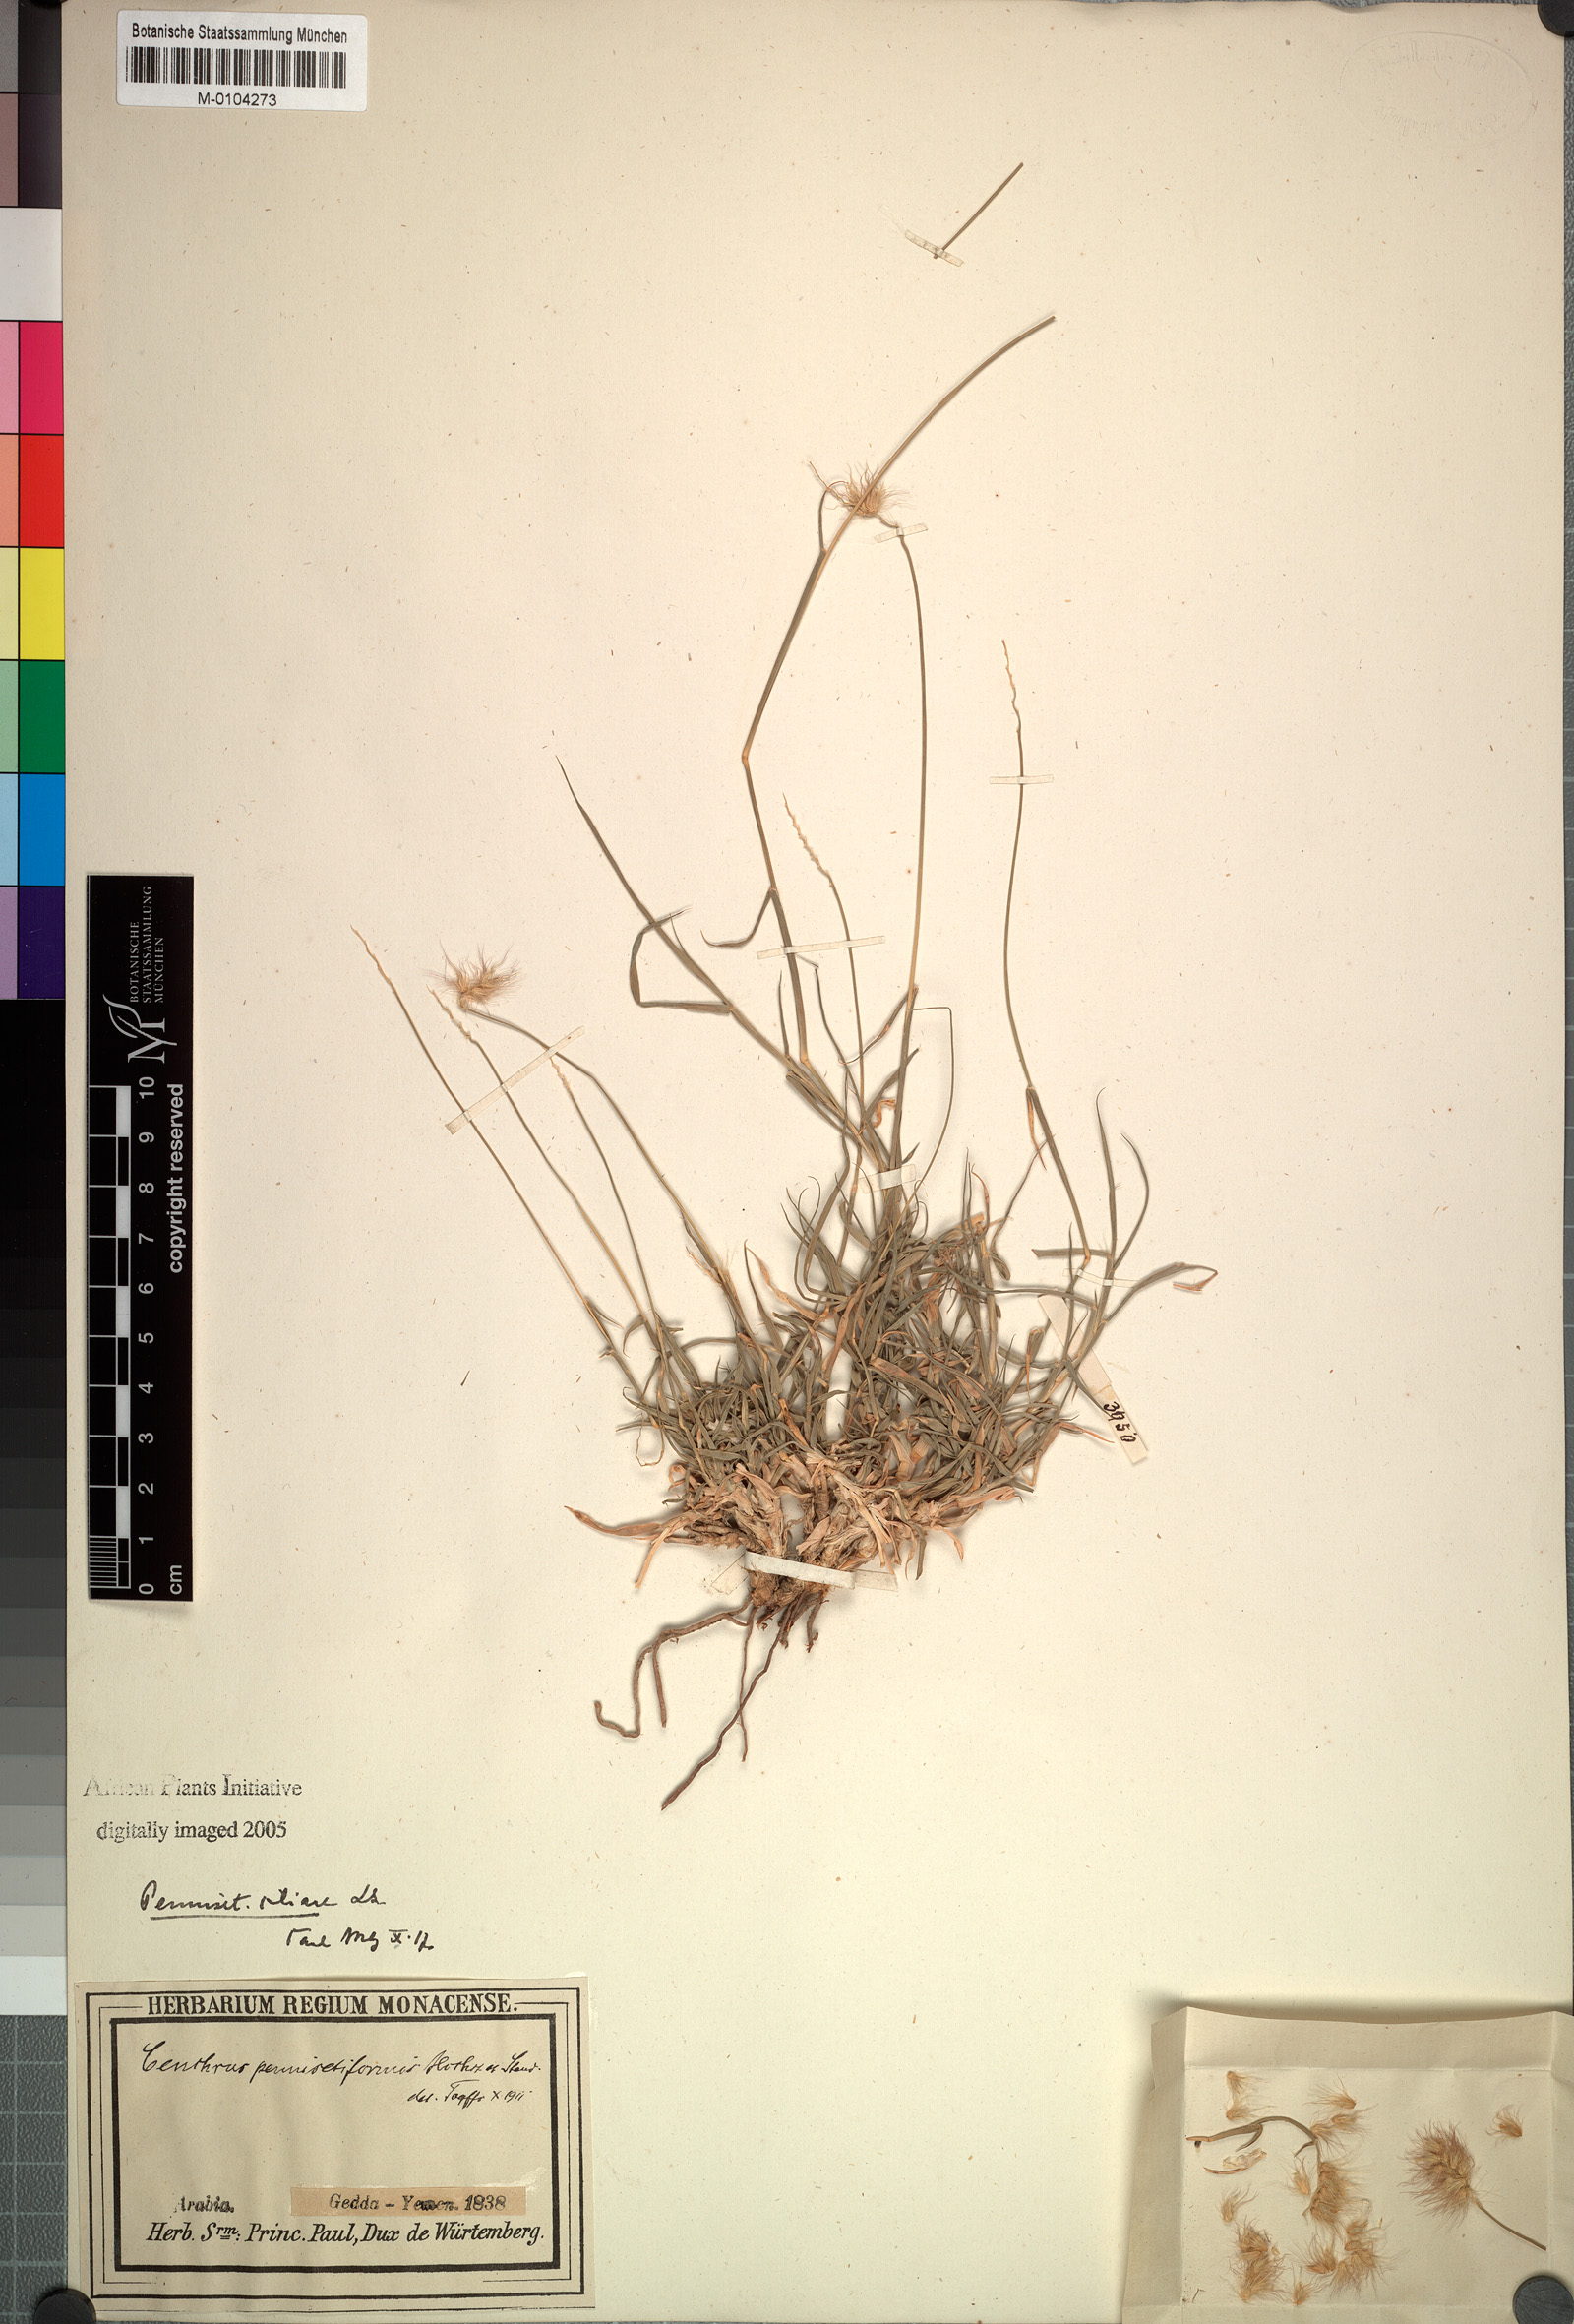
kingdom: Plantae
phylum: Tracheophyta
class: Liliopsida
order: Poales
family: Poaceae
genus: Cenchrus
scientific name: Cenchrus pennisetiformis
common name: Cloncurry
